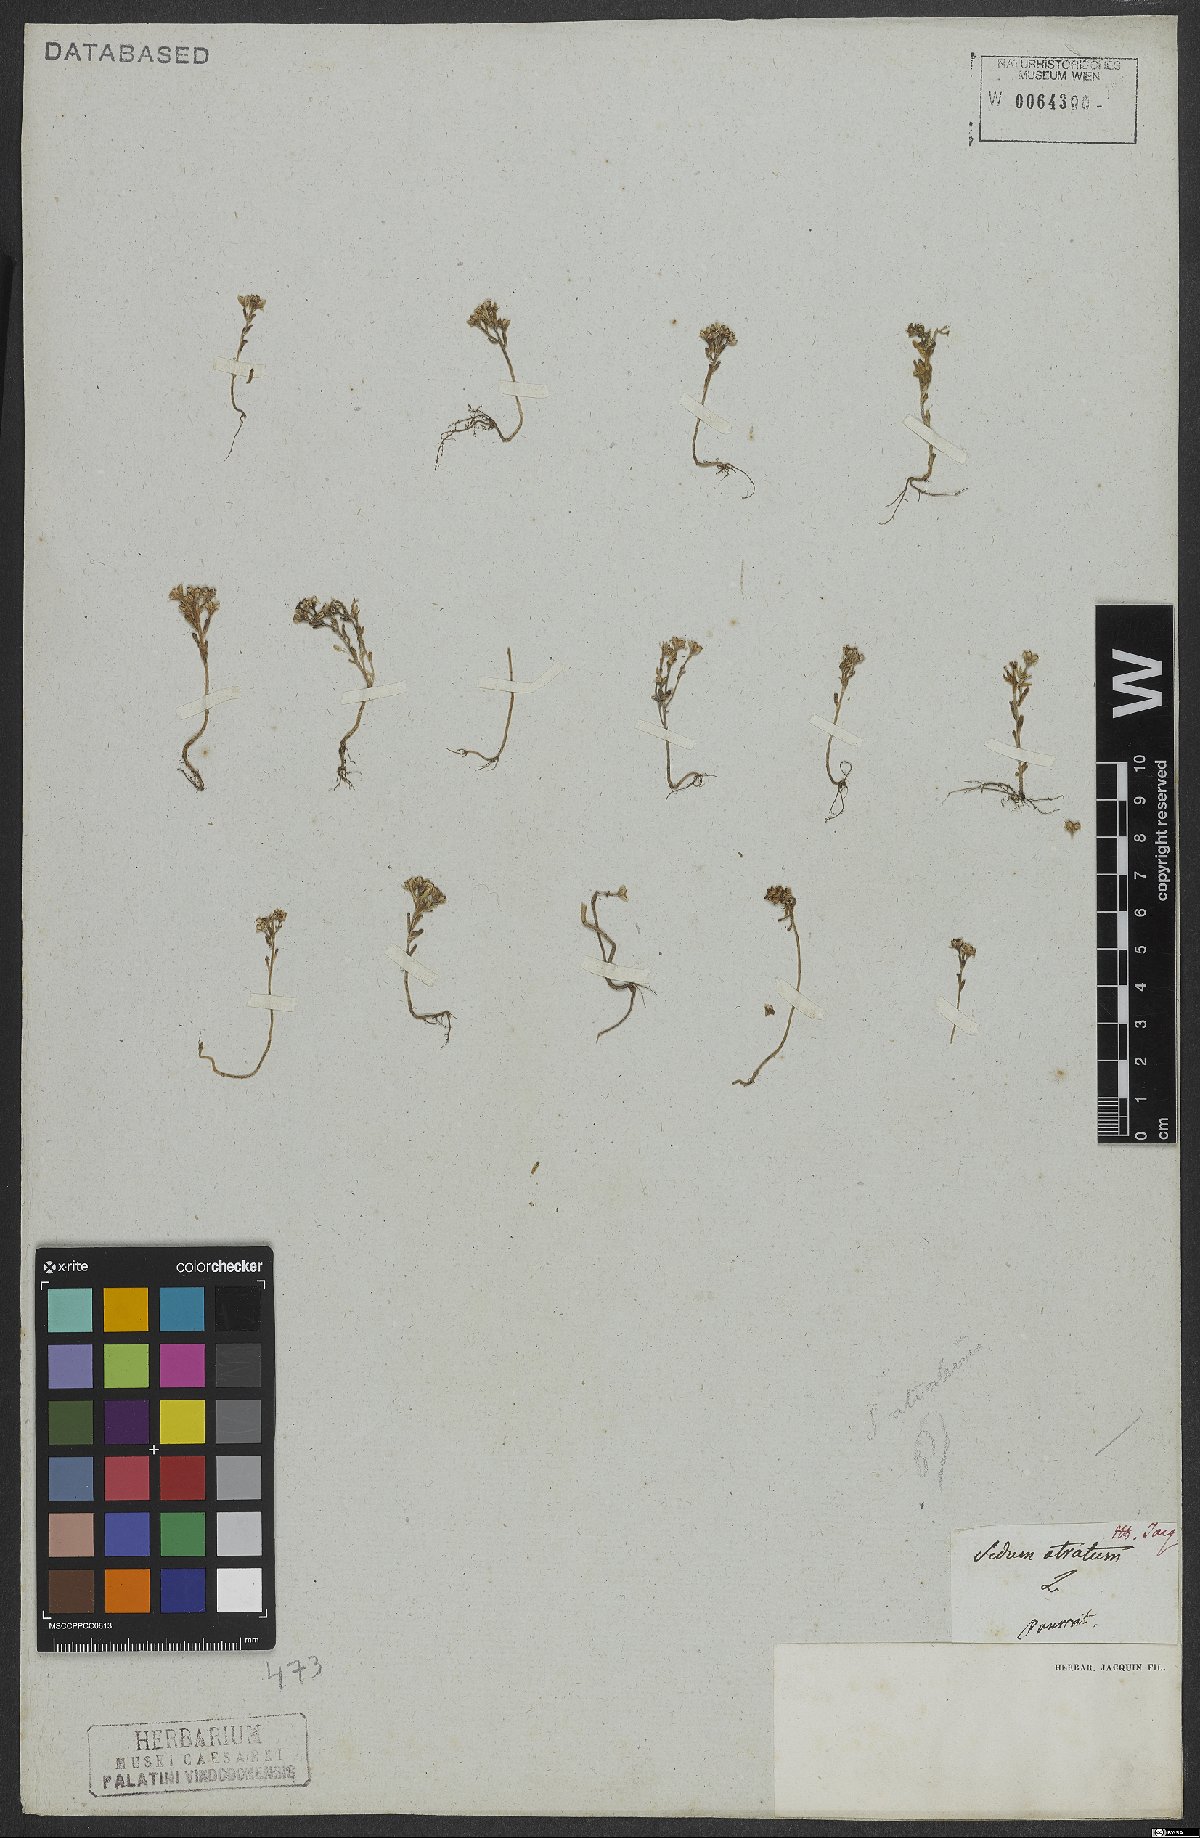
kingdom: Plantae
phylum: Tracheophyta
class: Magnoliopsida
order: Saxifragales
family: Crassulaceae
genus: Sedum
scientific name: Sedum atratum
